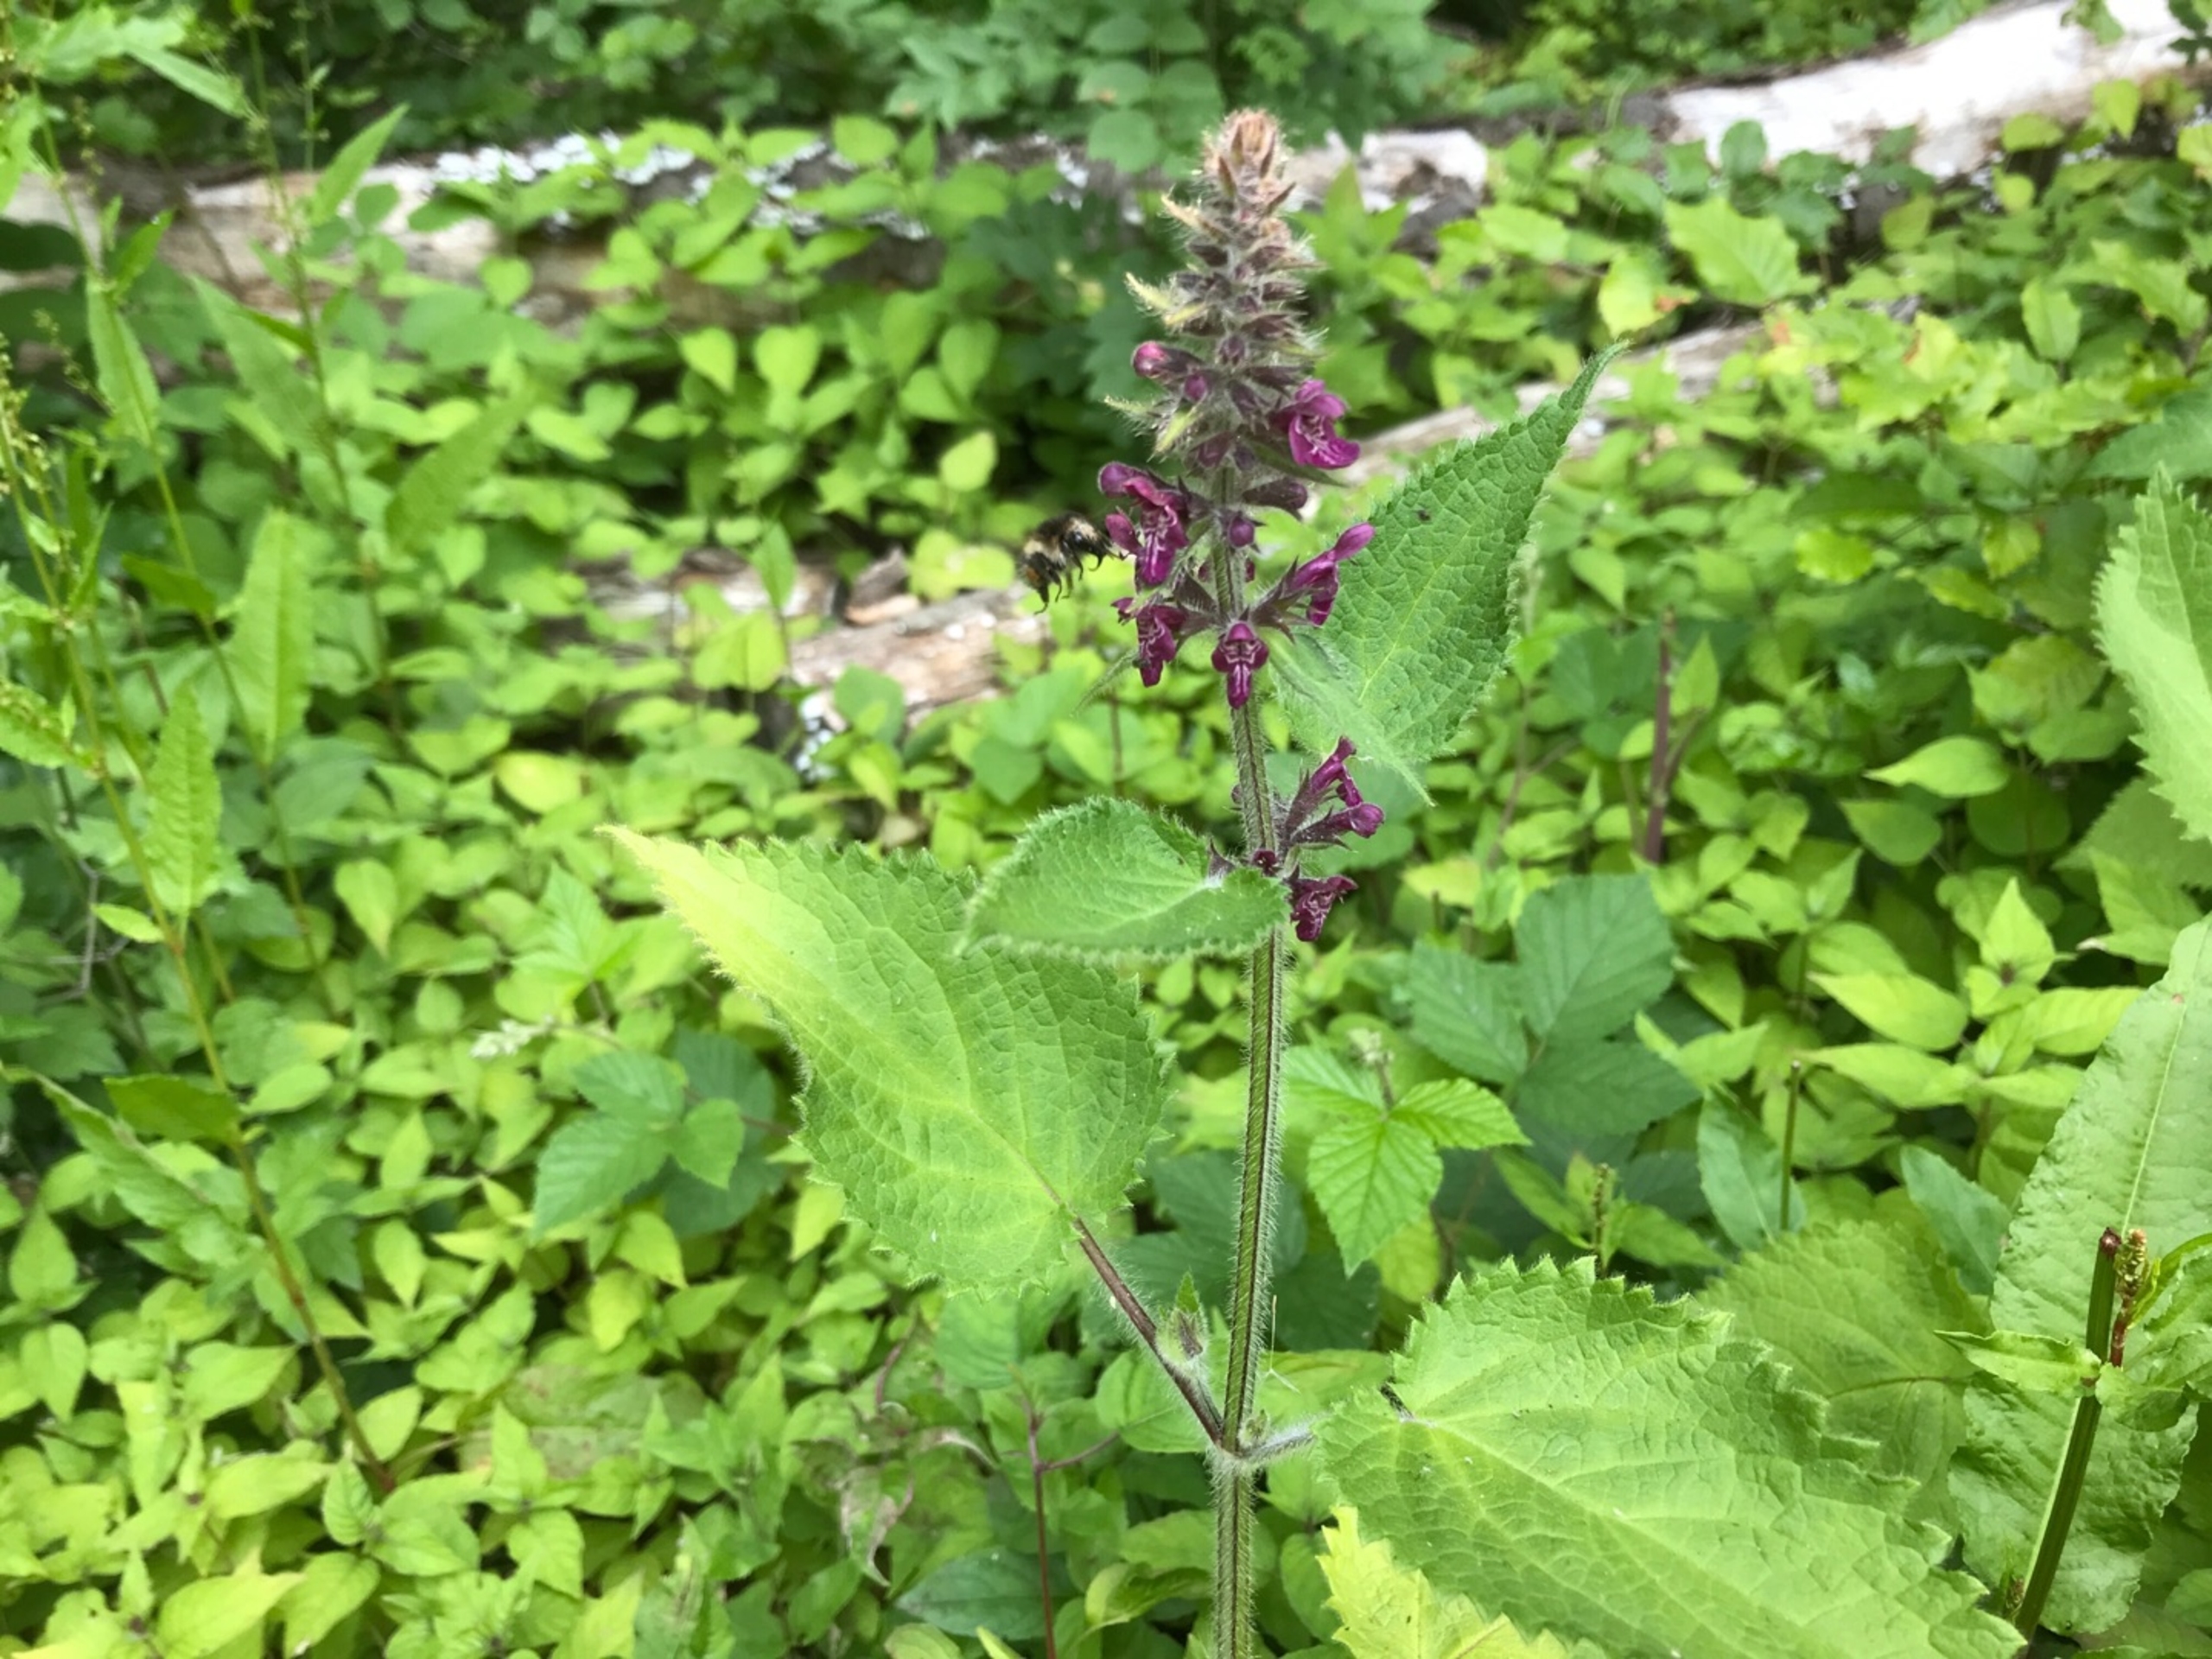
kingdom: Plantae
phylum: Tracheophyta
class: Magnoliopsida
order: Lamiales
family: Lamiaceae
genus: Stachys
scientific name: Stachys sylvatica
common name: Skov-galtetand
